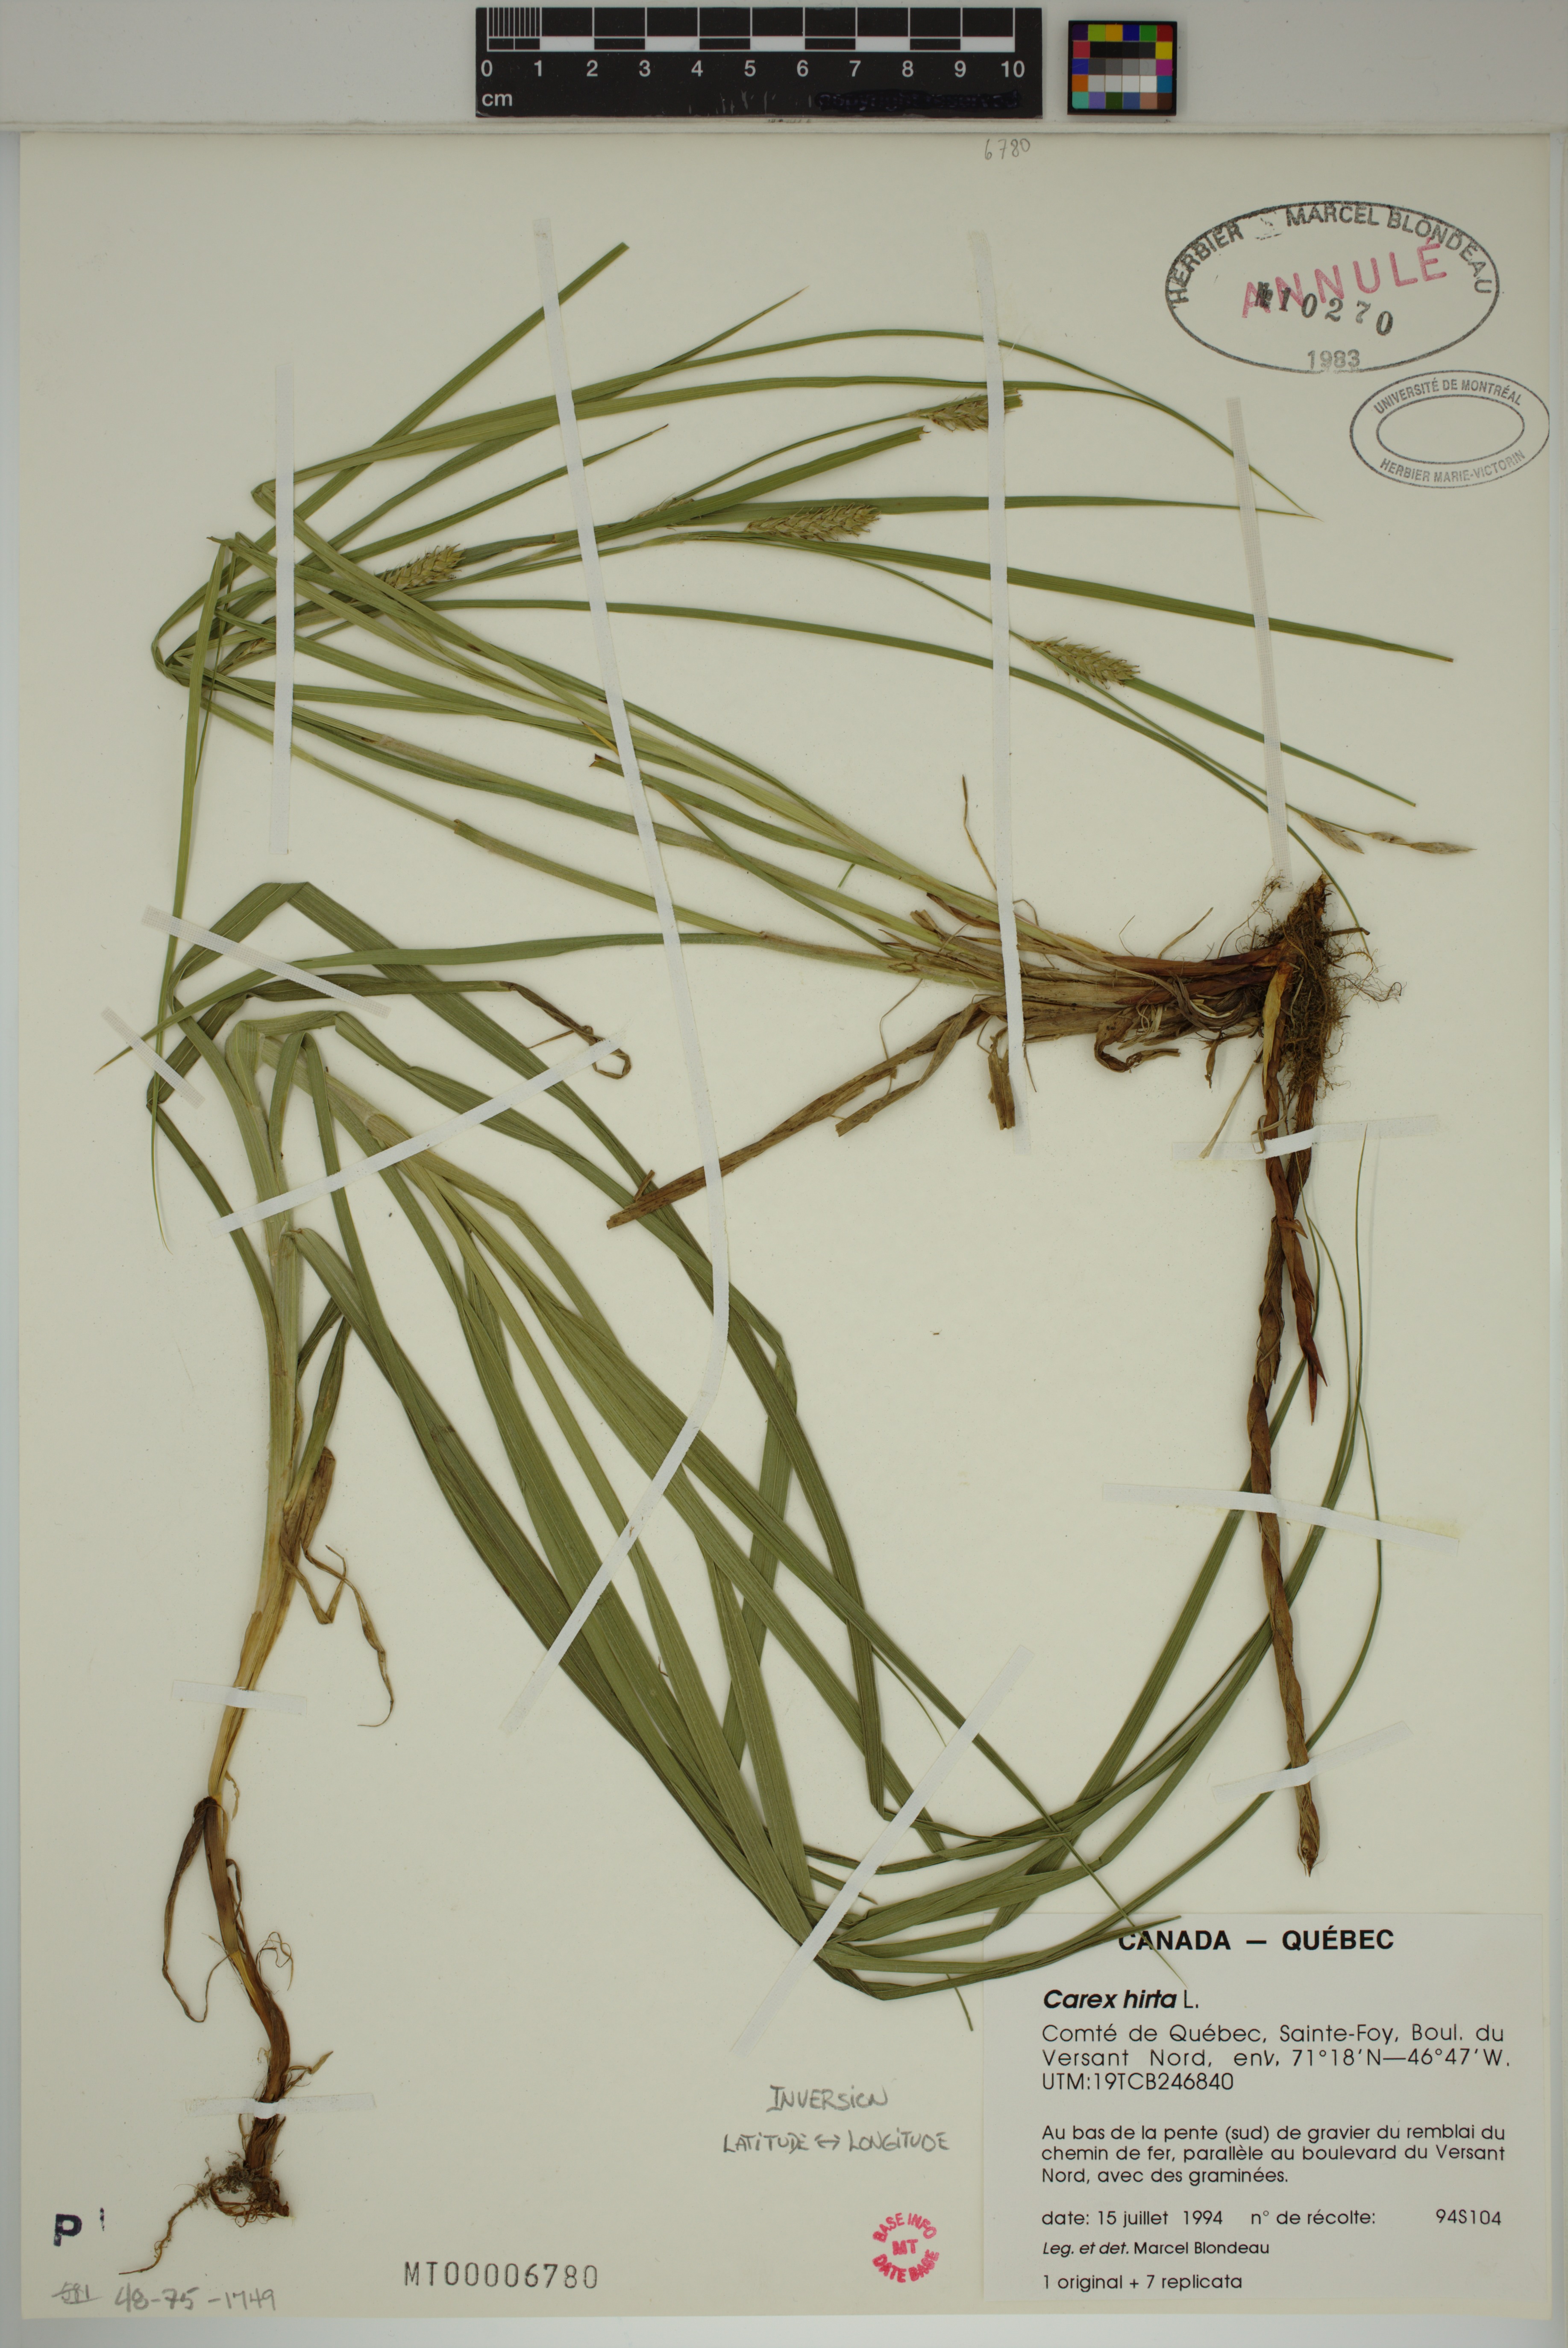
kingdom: Plantae
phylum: Tracheophyta
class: Liliopsida
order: Poales
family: Cyperaceae
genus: Carex
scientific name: Carex hirta
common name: Hairy sedge
